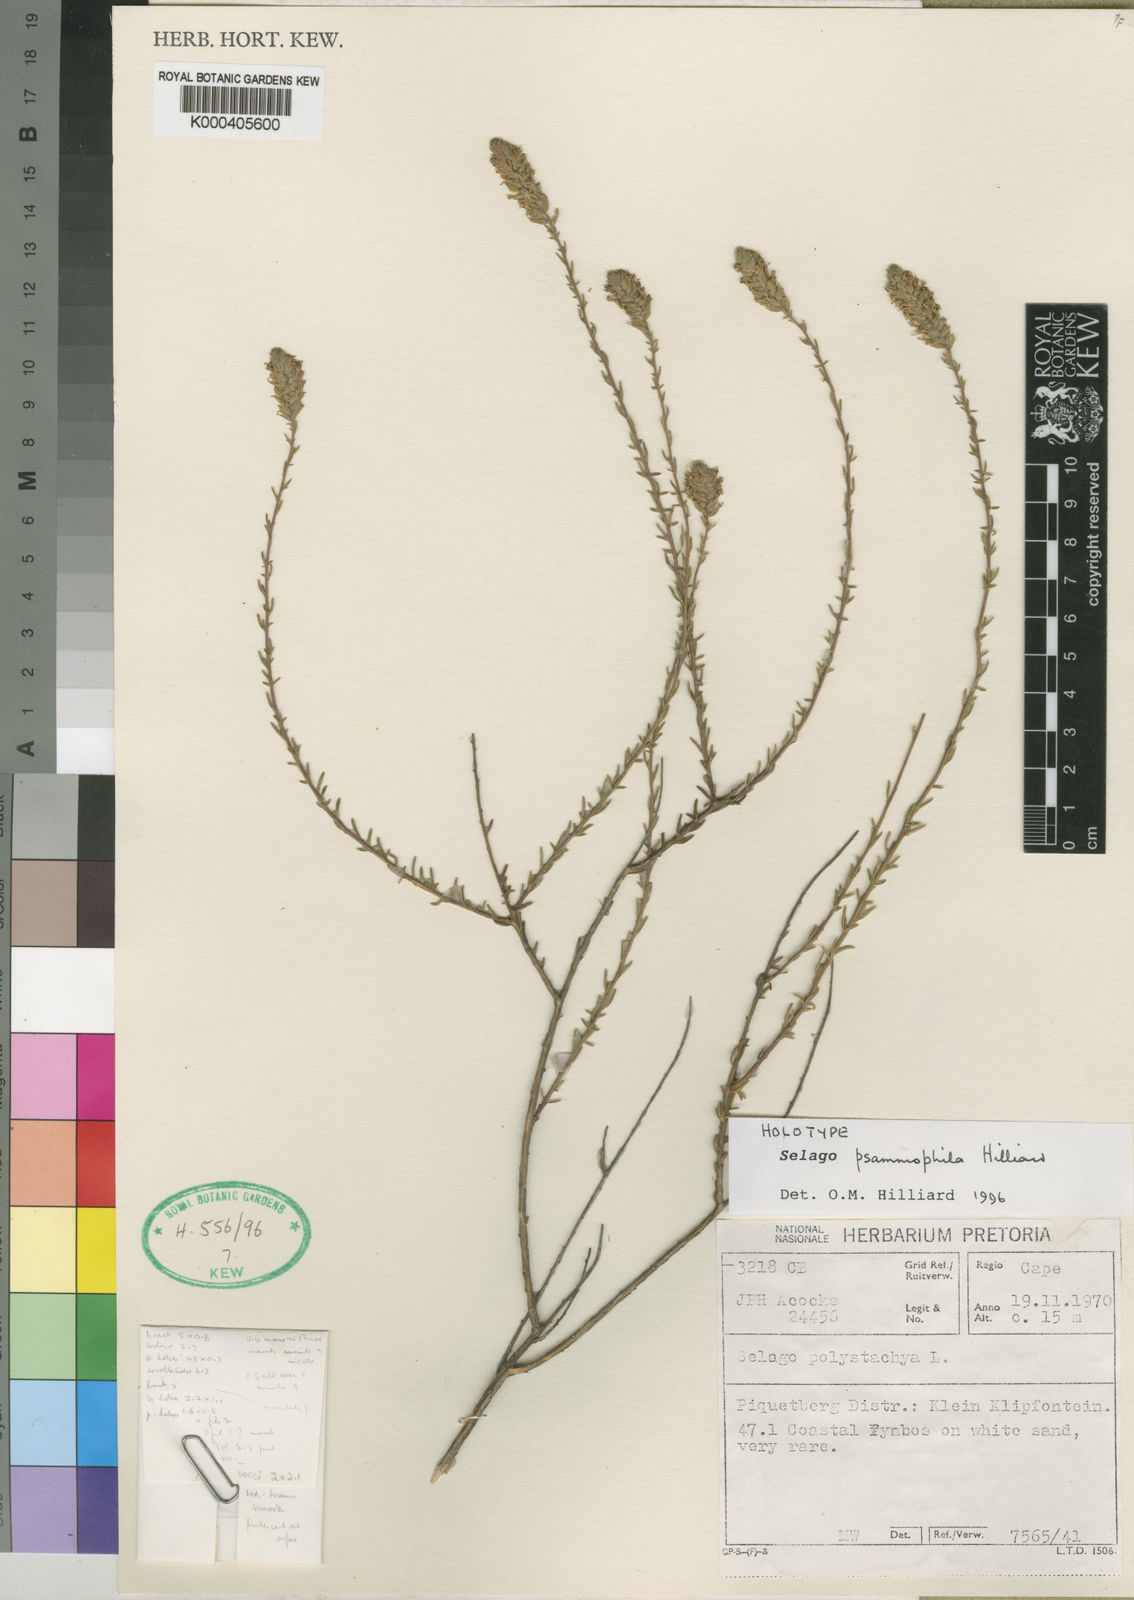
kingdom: Plantae
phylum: Tracheophyta
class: Magnoliopsida
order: Lamiales
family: Scrophulariaceae
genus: Selago
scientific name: Selago psammophila
